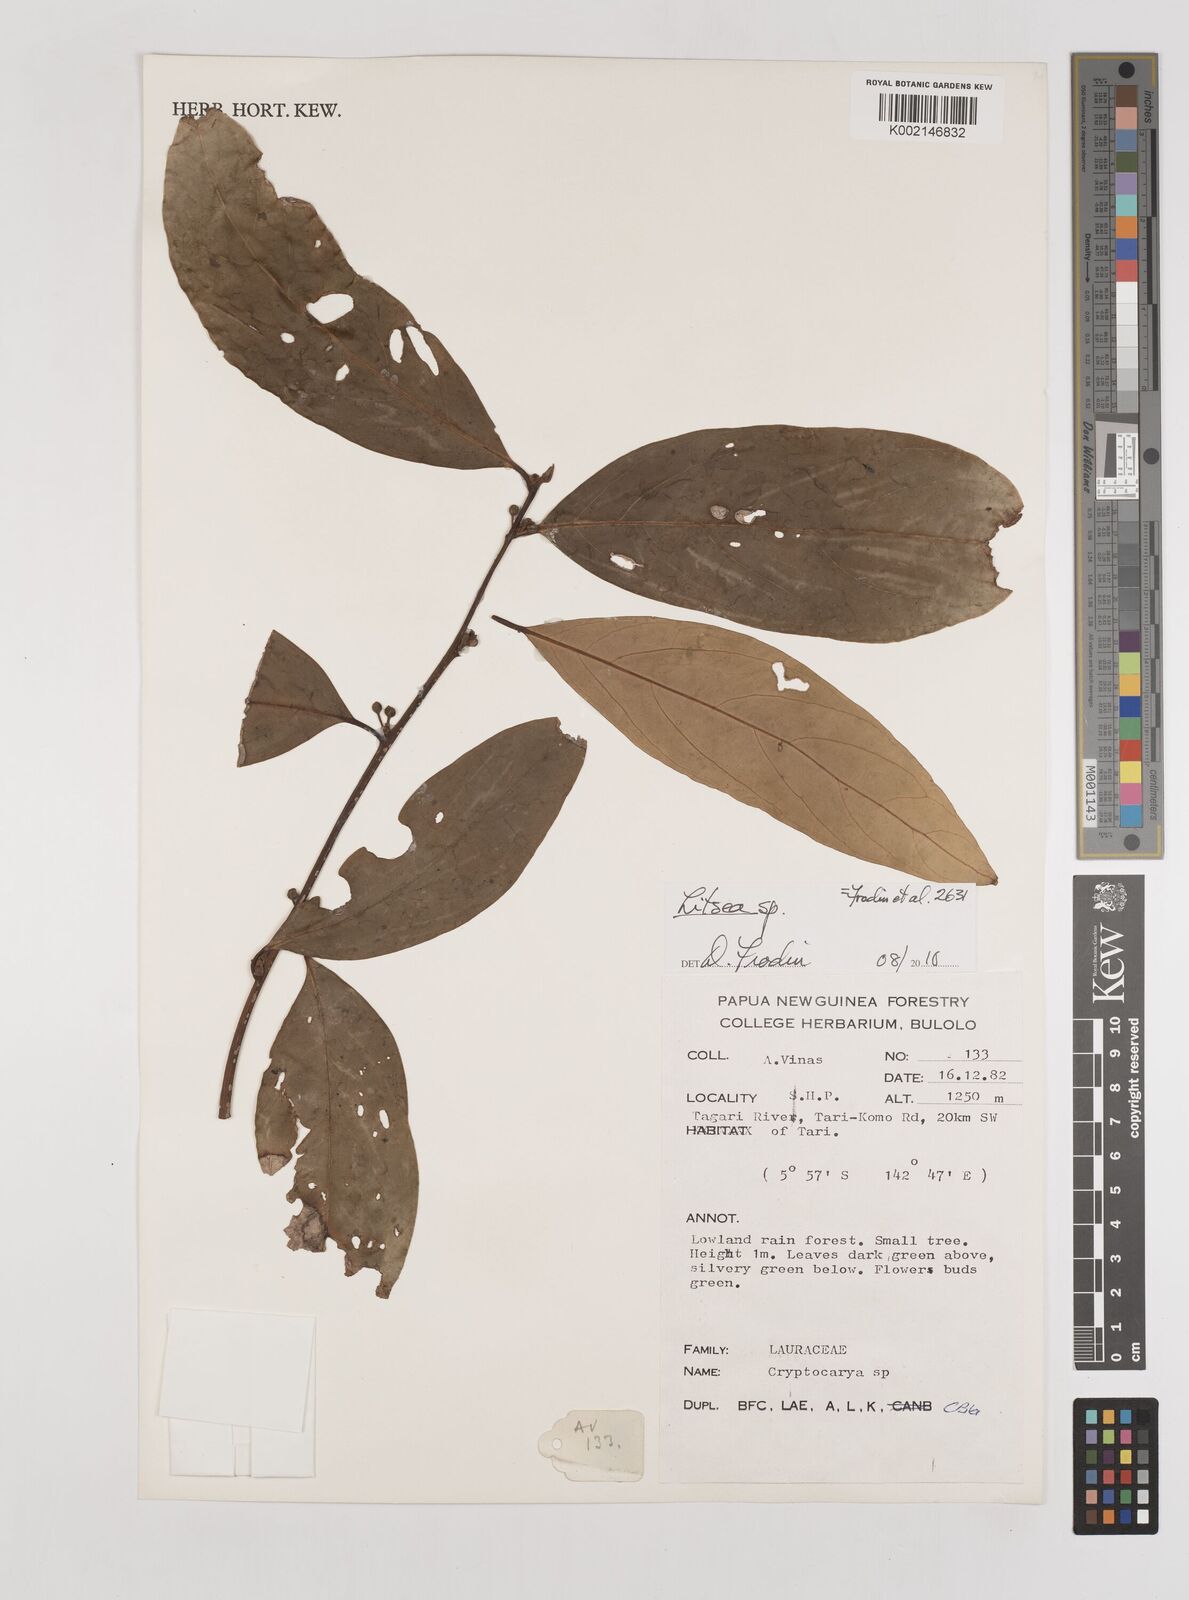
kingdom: Plantae
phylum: Tracheophyta
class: Magnoliopsida
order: Laurales
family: Lauraceae
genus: Litsea
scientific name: Litsea
